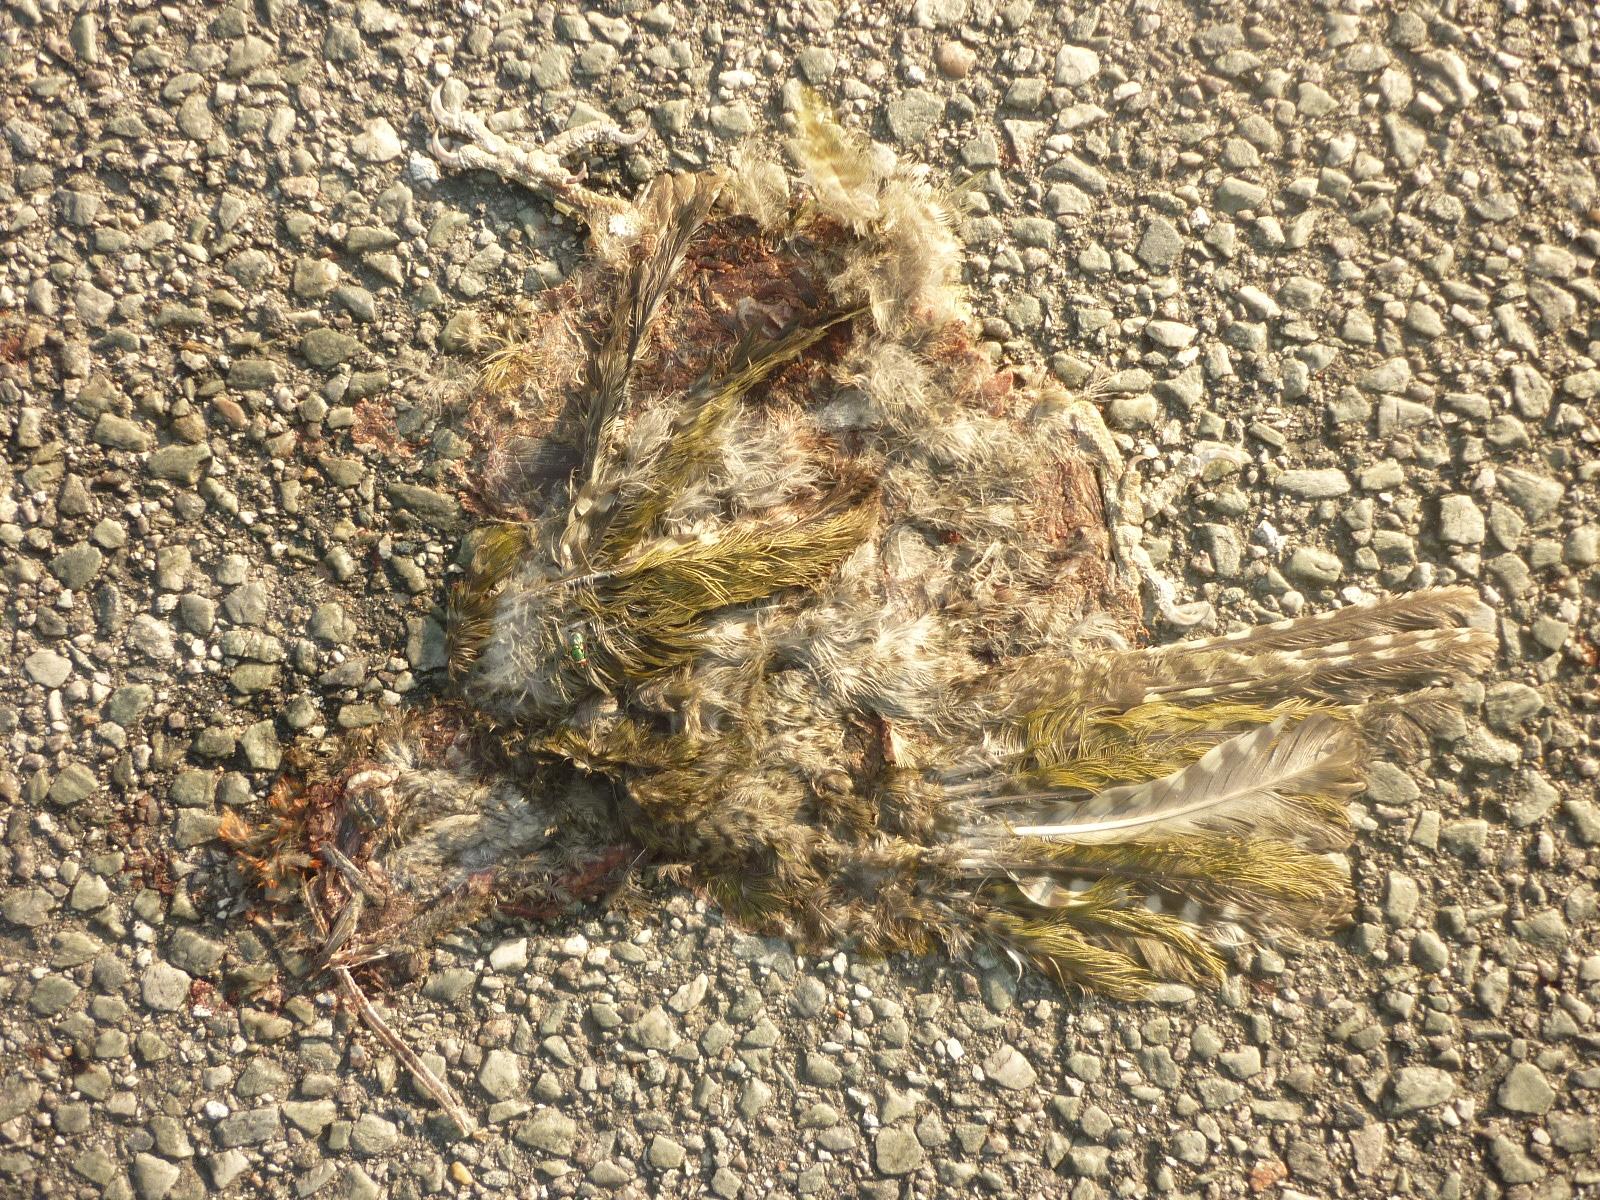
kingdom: Animalia
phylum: Chordata
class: Aves
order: Piciformes
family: Picidae
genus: Picus
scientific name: Picus viridis
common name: European green woodpecker
